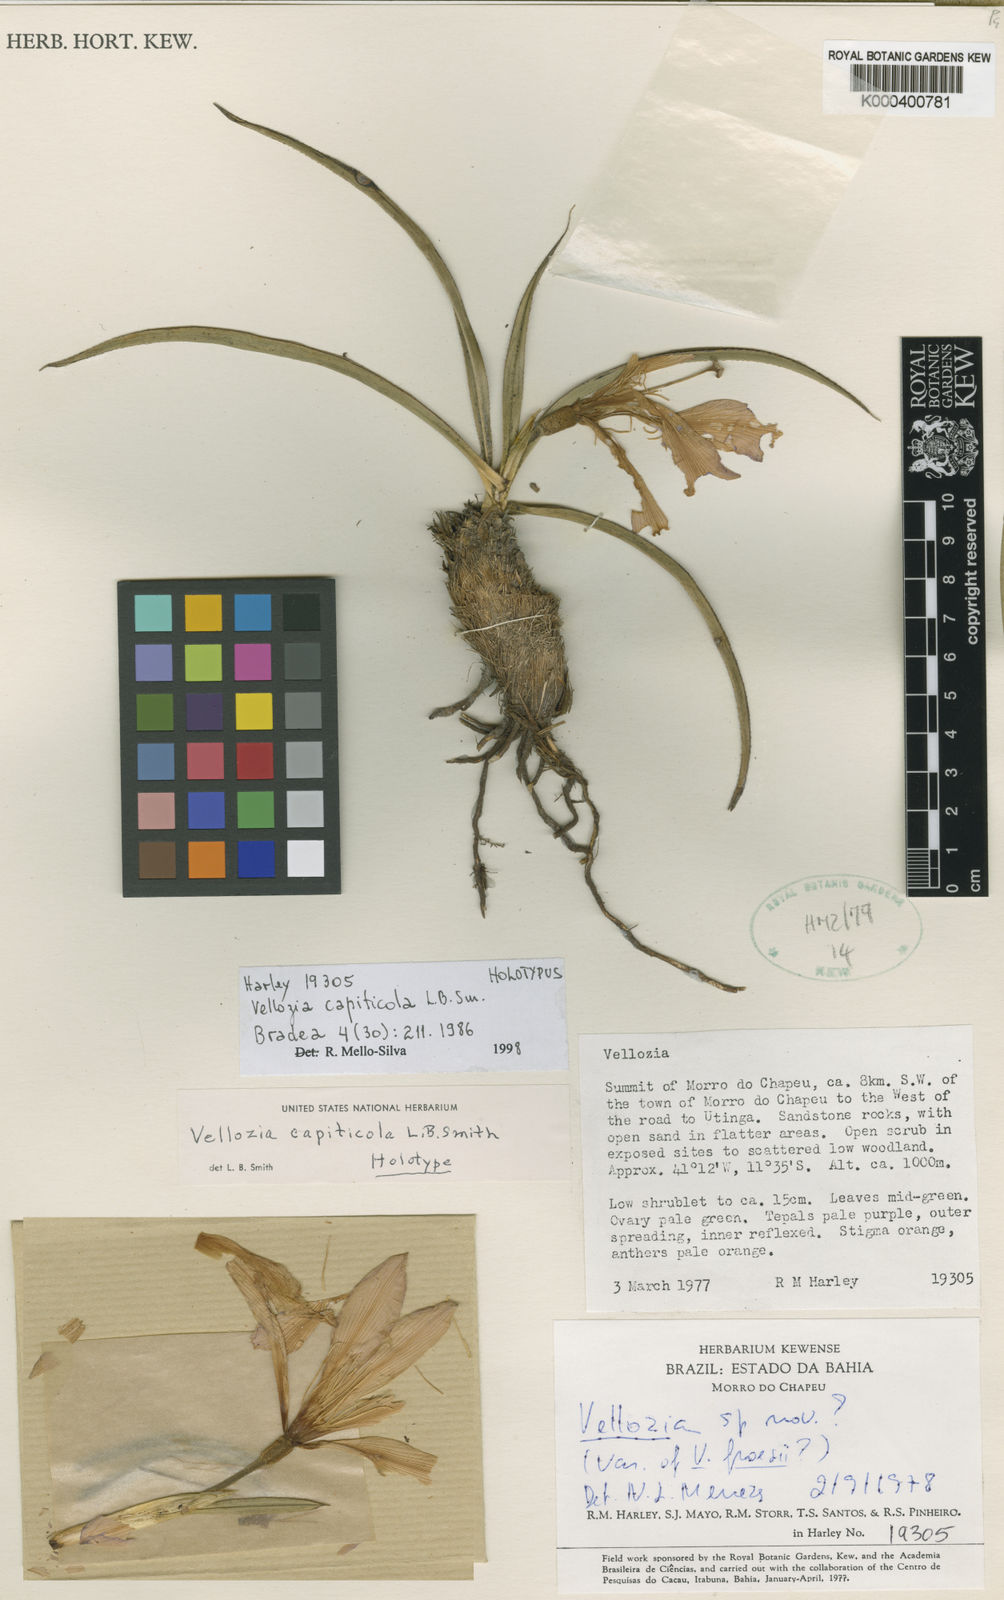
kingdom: Plantae
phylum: Tracheophyta
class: Liliopsida
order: Pandanales
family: Velloziaceae
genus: Vellozia
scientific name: Vellozia capiticola
